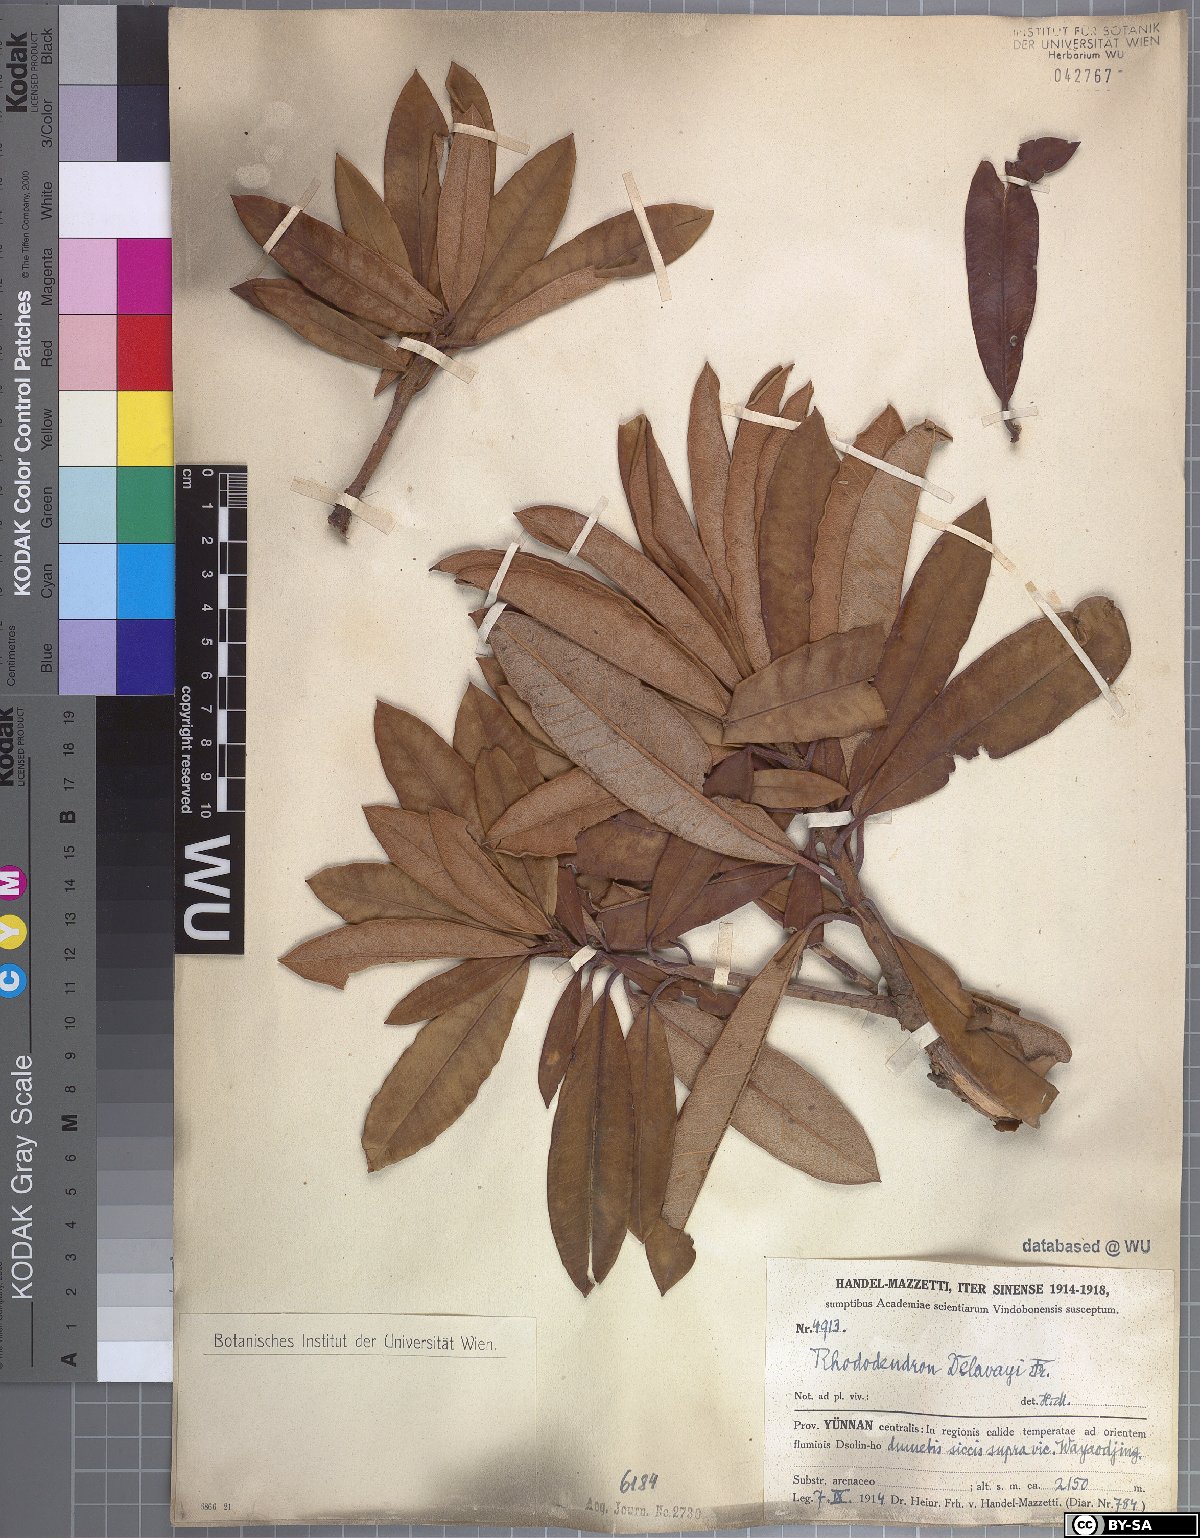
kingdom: Plantae
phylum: Tracheophyta
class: Magnoliopsida
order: Ericales
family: Ericaceae
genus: Rhododendron
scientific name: Rhododendron delavayi
